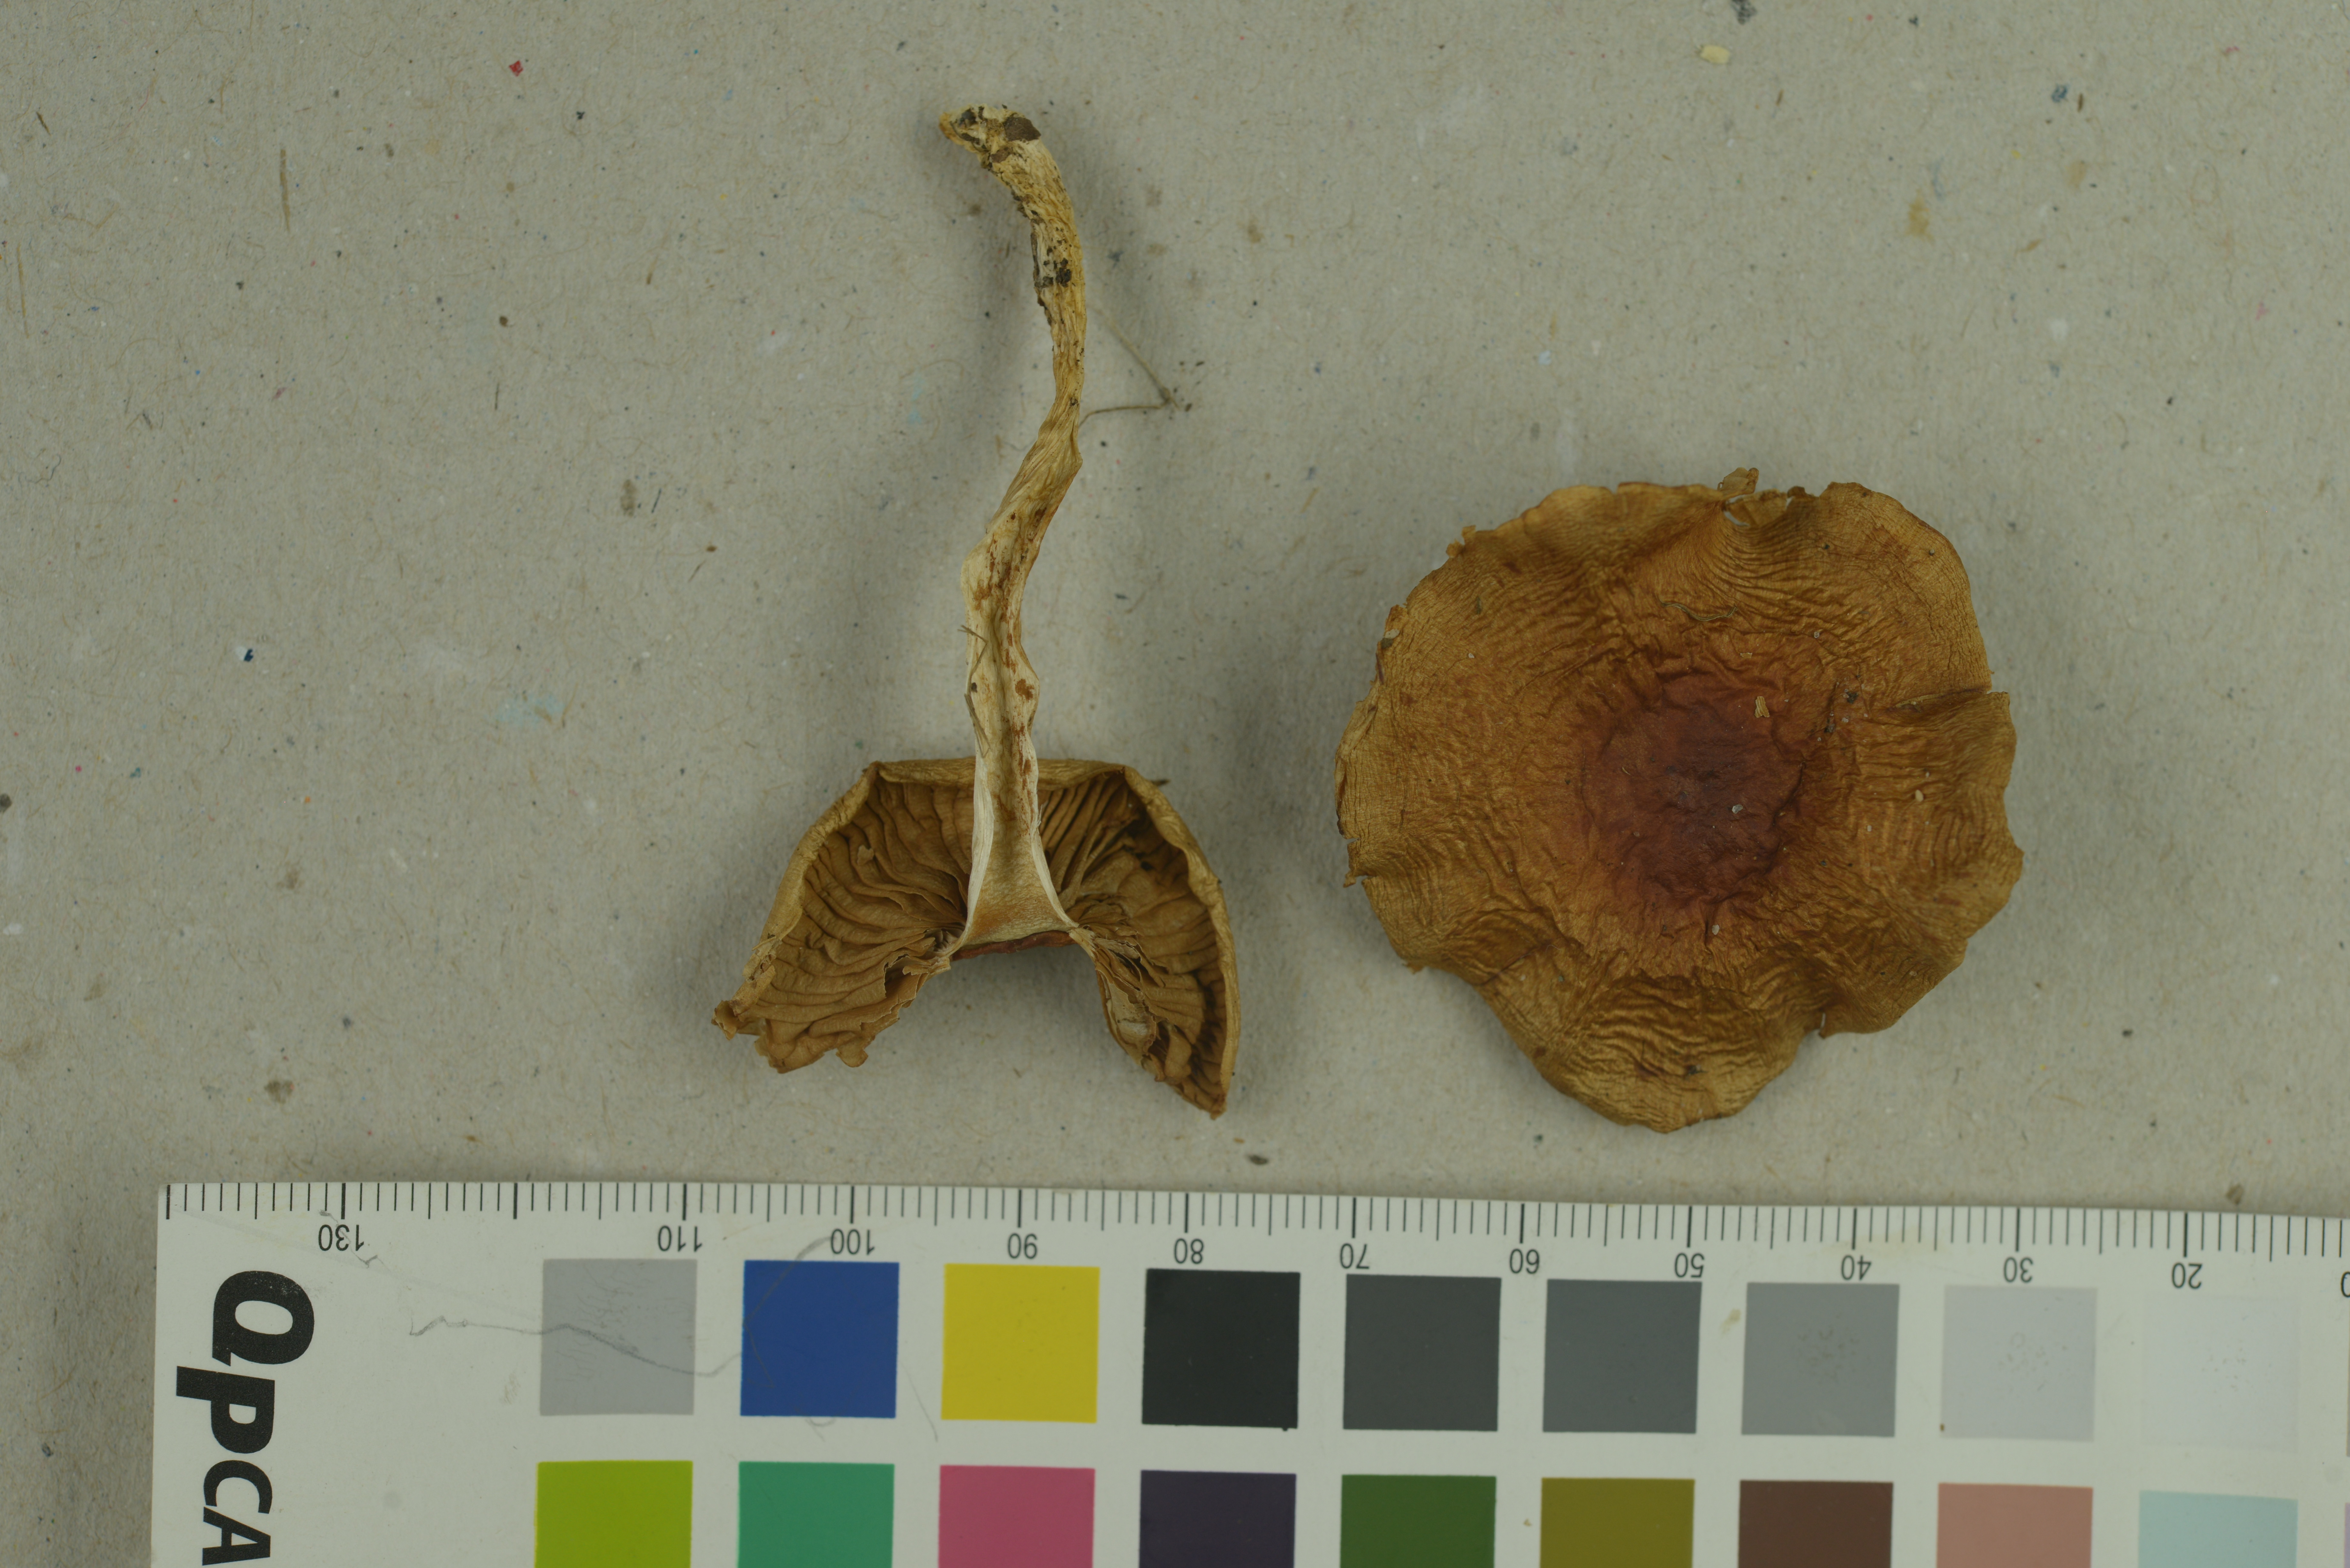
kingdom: Fungi
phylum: Basidiomycota
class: Agaricomycetes
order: Agaricales
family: Cortinariaceae
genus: Cortinarius
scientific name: Cortinarius emollitus
